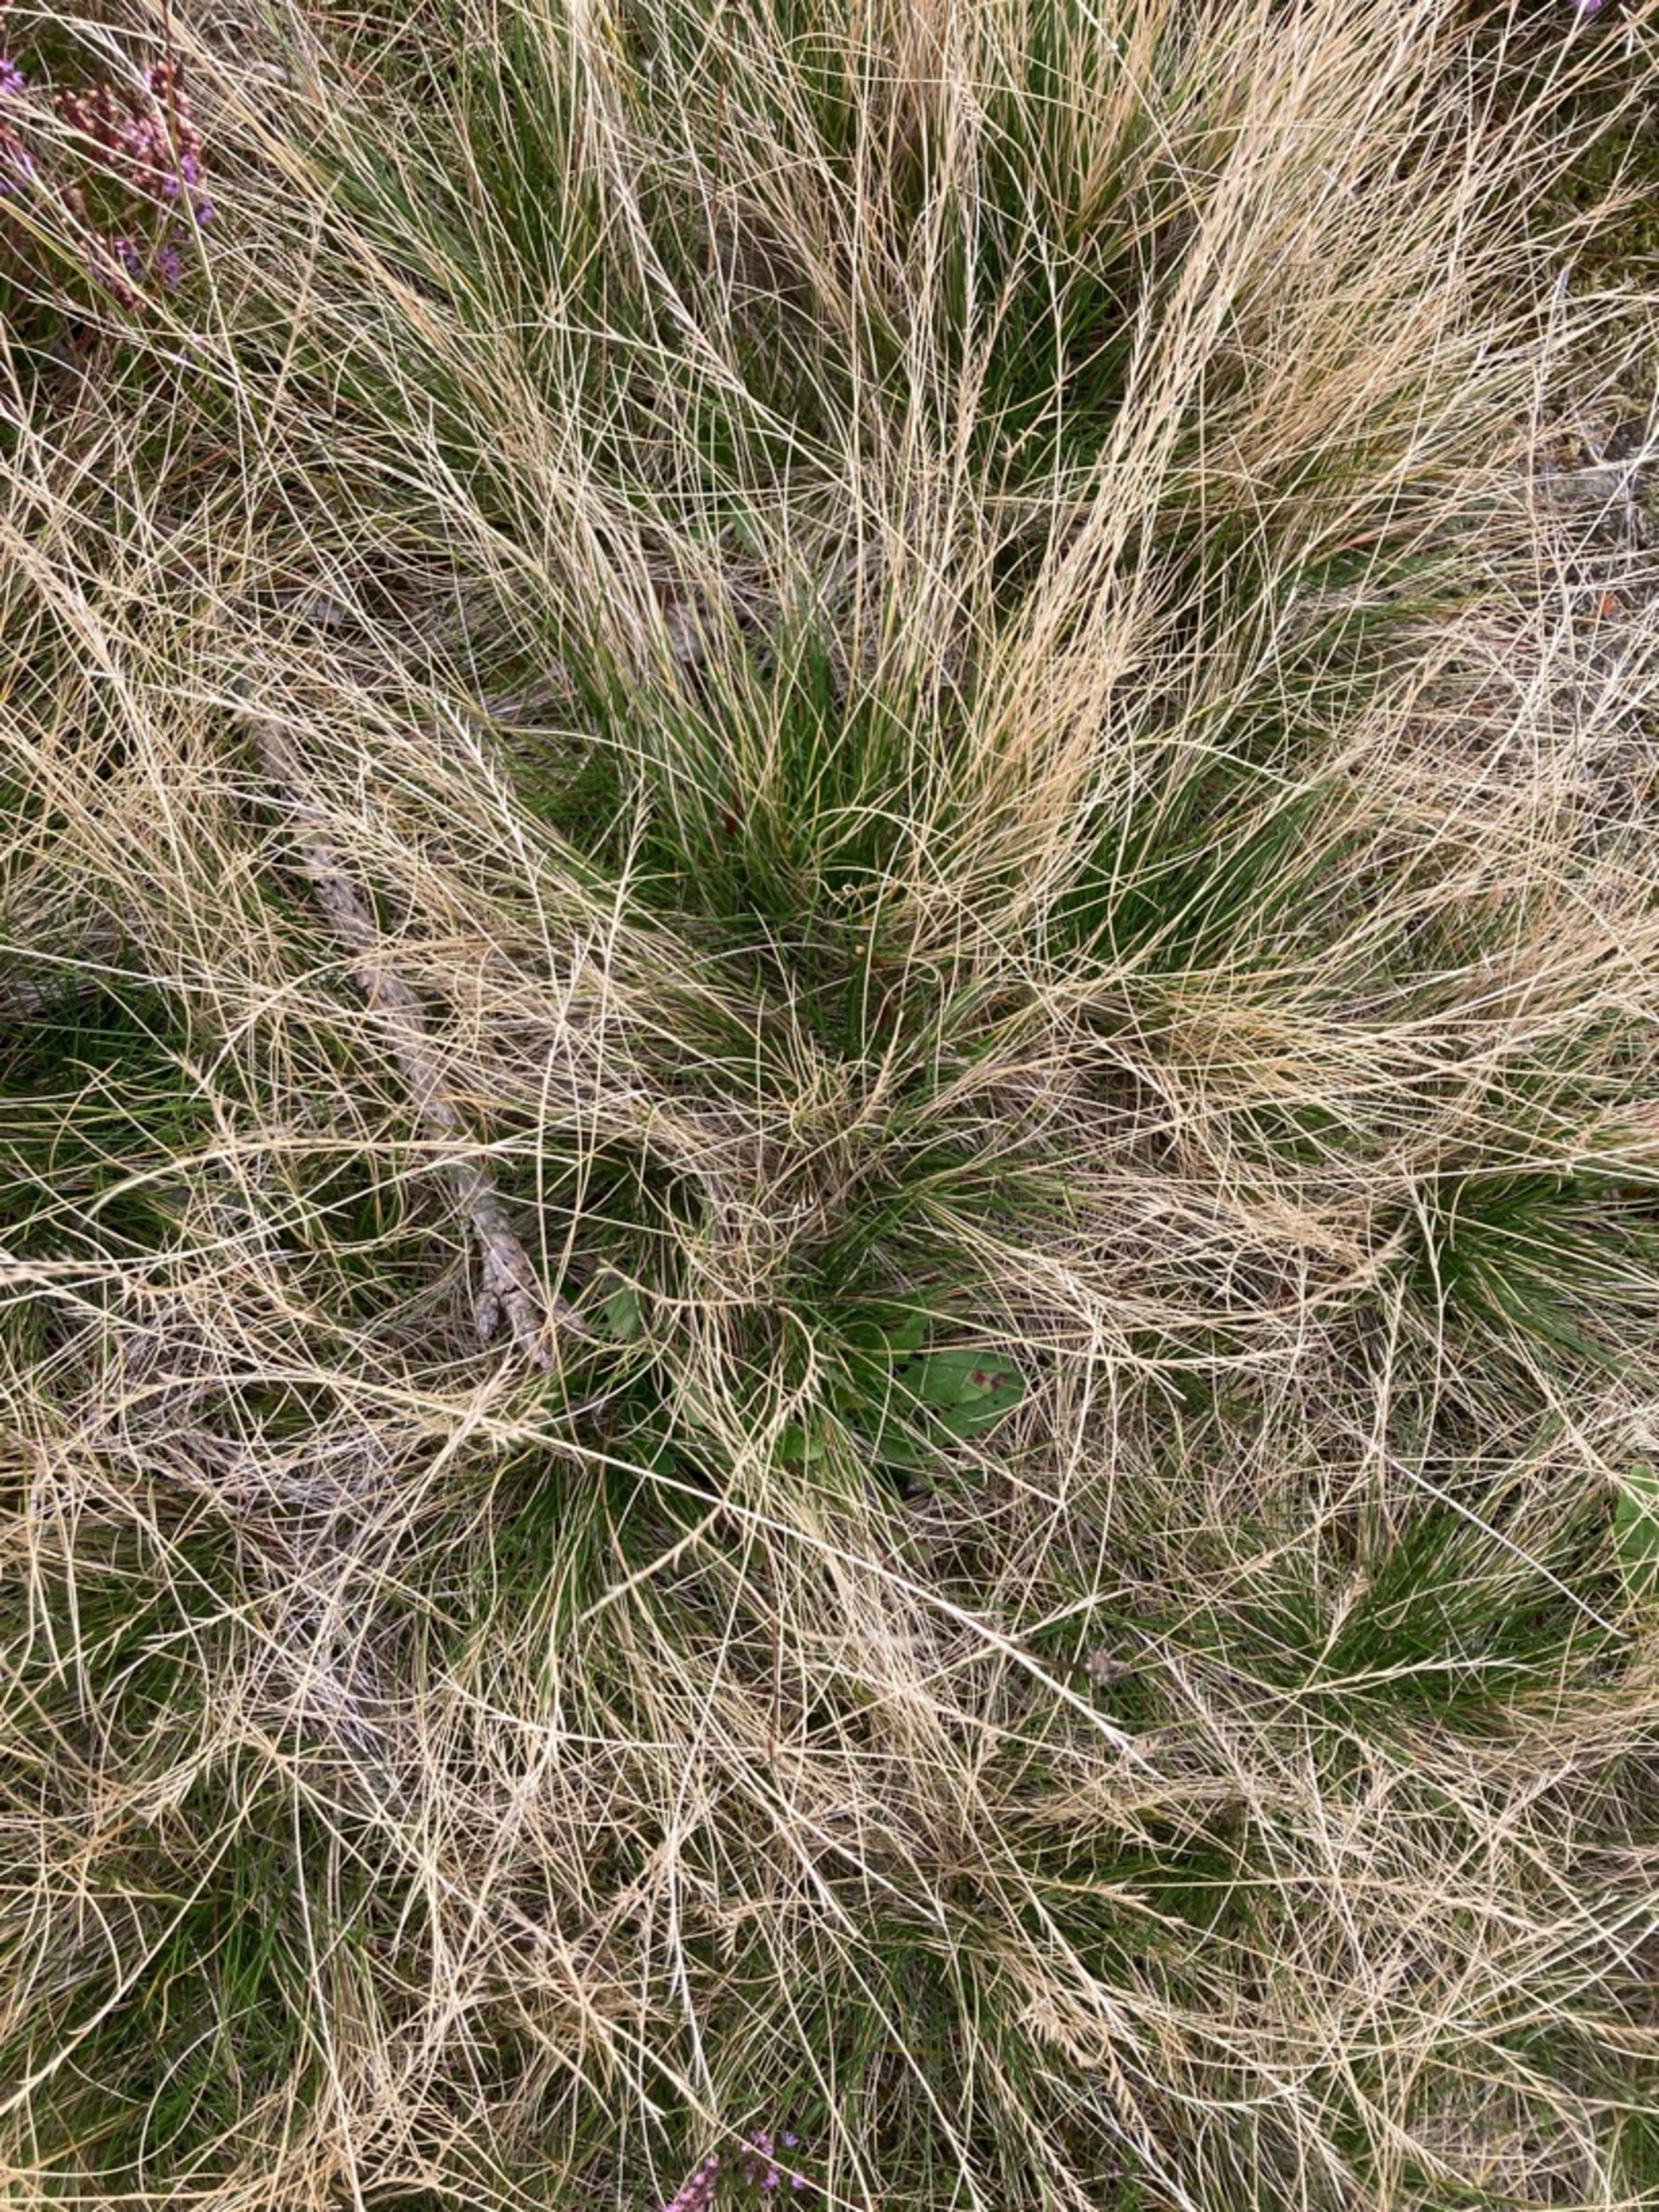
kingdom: Plantae
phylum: Tracheophyta
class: Liliopsida
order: Poales
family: Poaceae
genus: Nardus
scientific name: Nardus stricta
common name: Katteskæg
